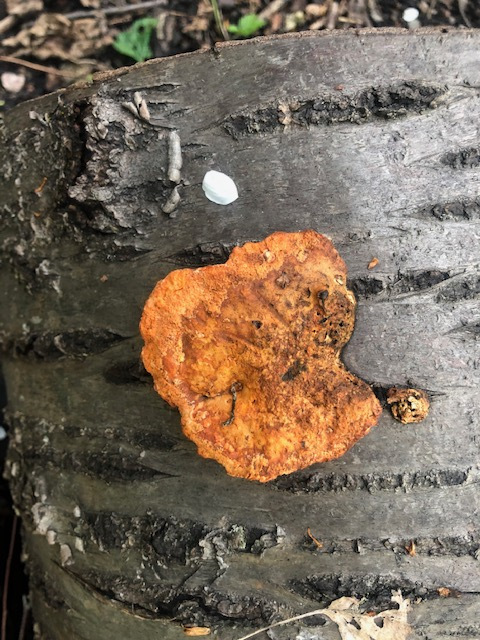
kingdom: Fungi
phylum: Basidiomycota
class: Agaricomycetes
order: Polyporales
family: Polyporaceae
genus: Trametes
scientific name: Trametes cinnabarina
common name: cinnoberporesvamp
